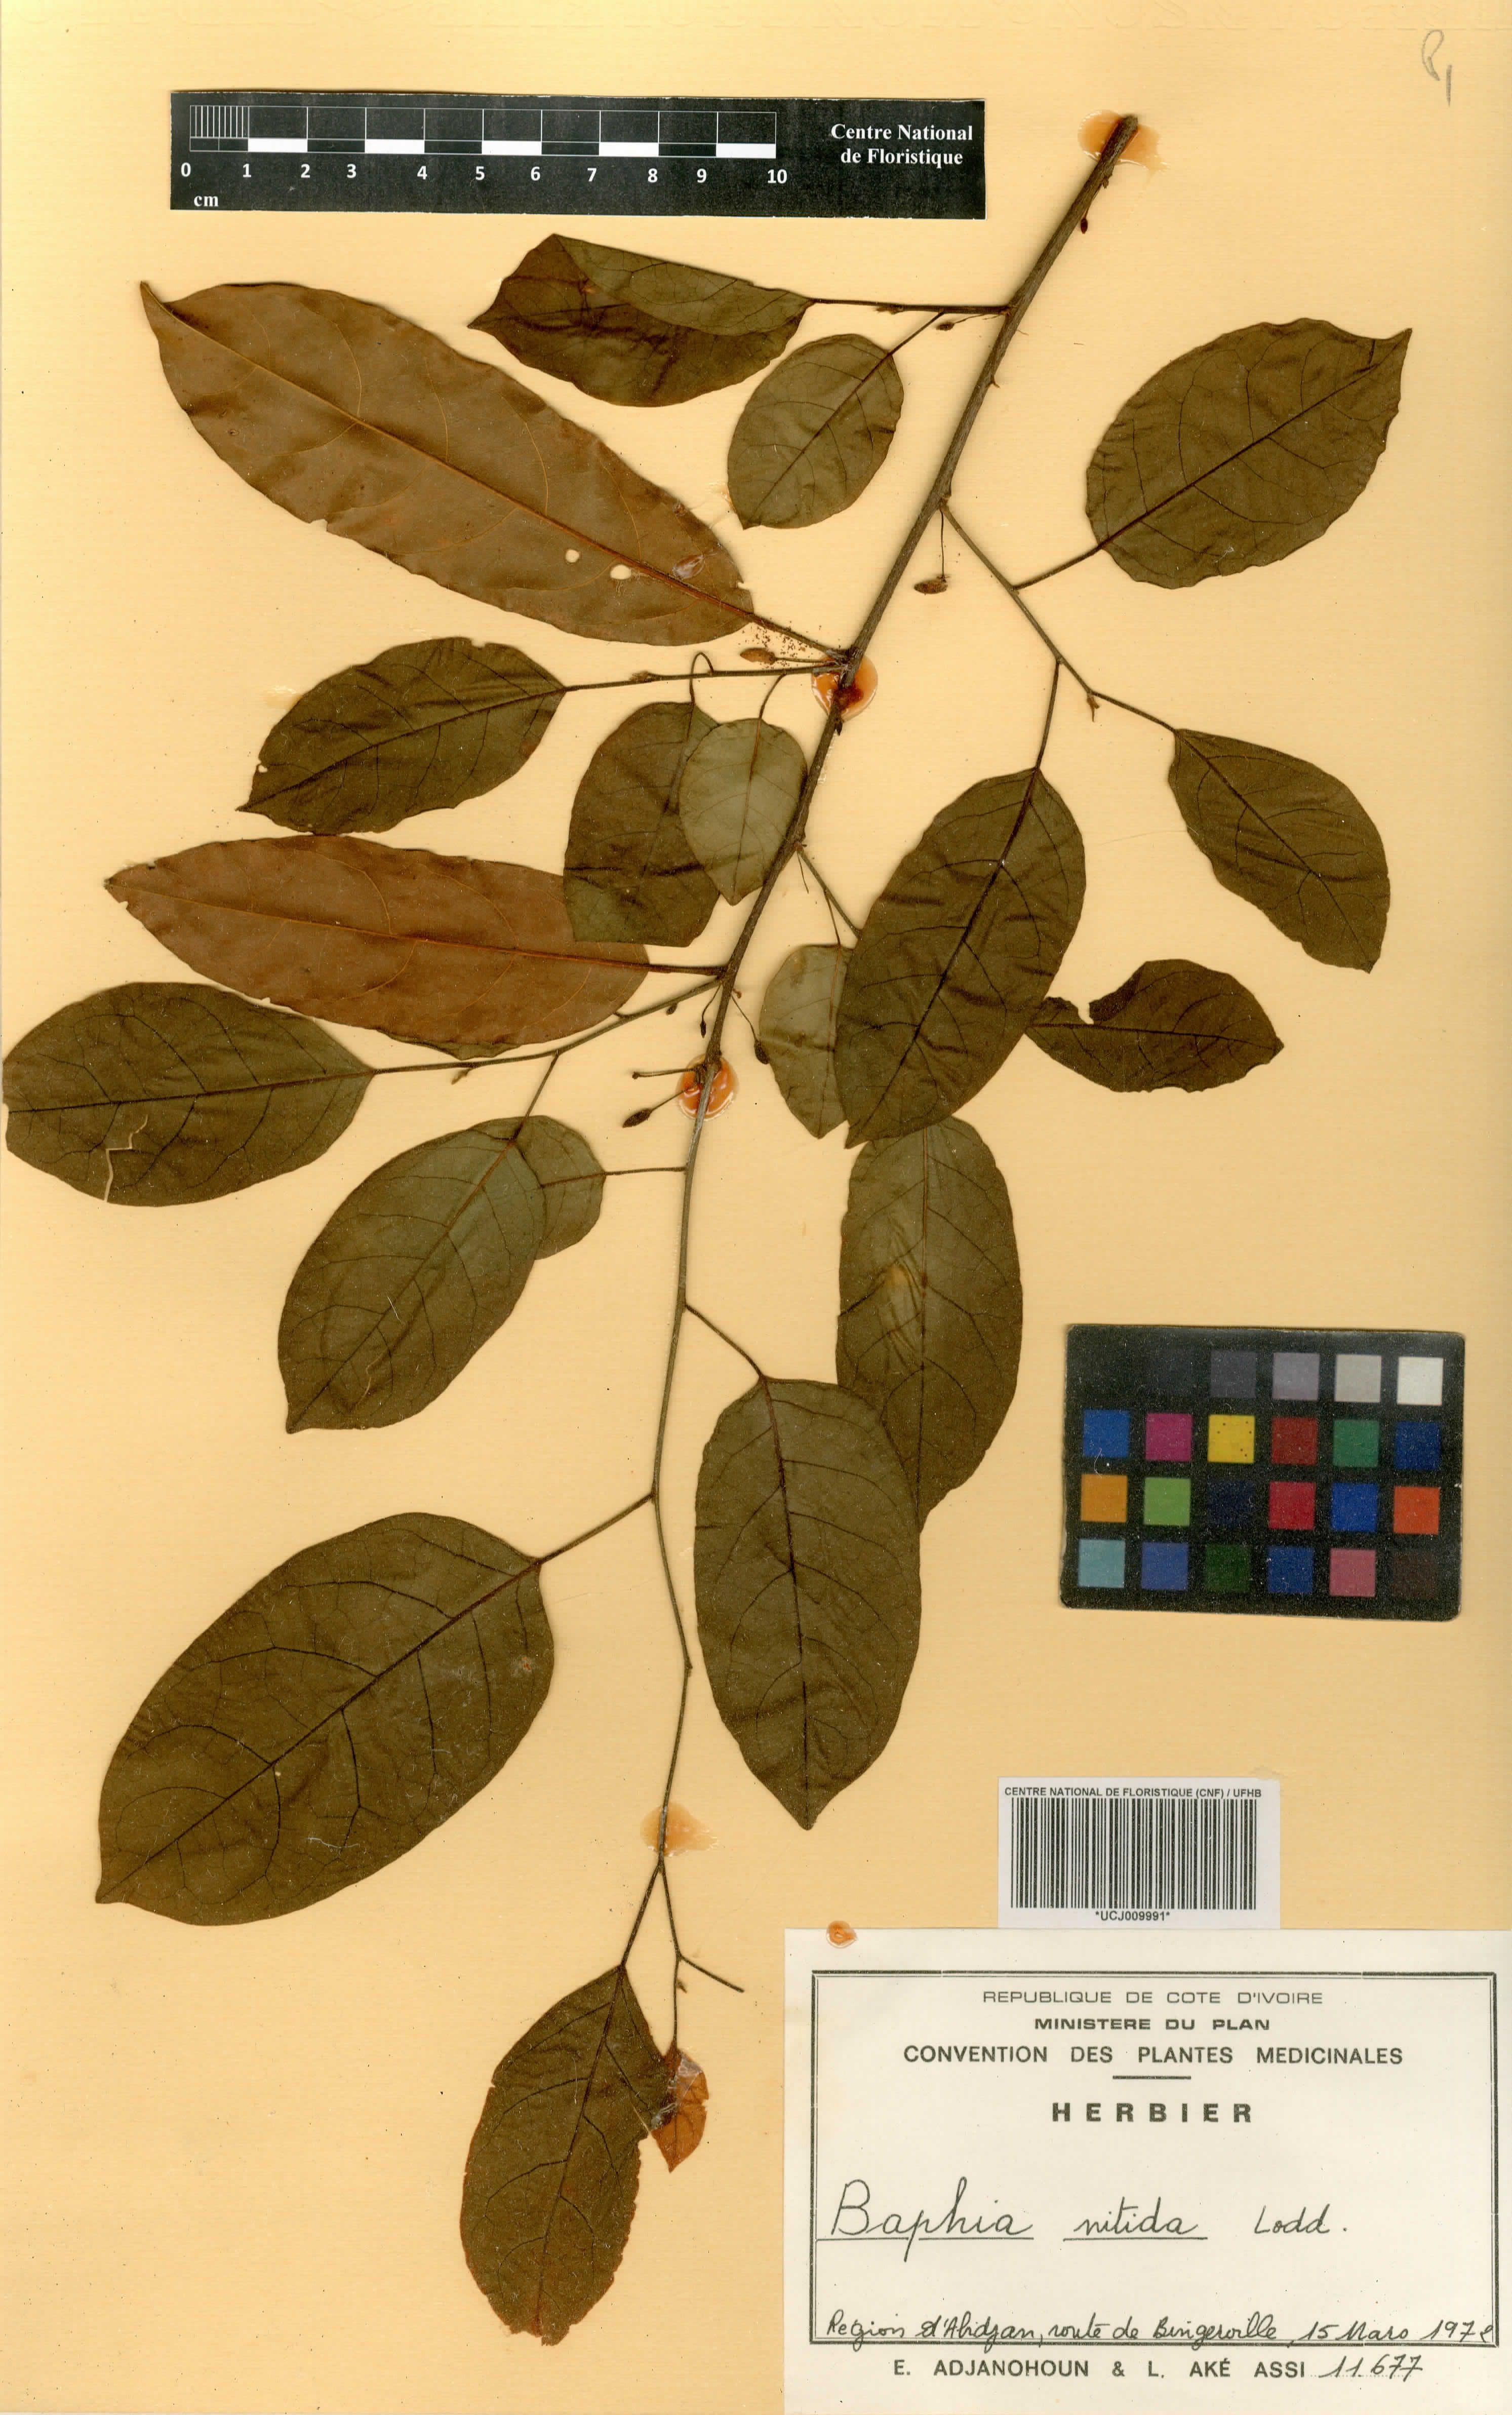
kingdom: Plantae
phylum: Tracheophyta
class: Magnoliopsida
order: Fabales
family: Fabaceae
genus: Baphia
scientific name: Baphia nitida
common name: Camwood
